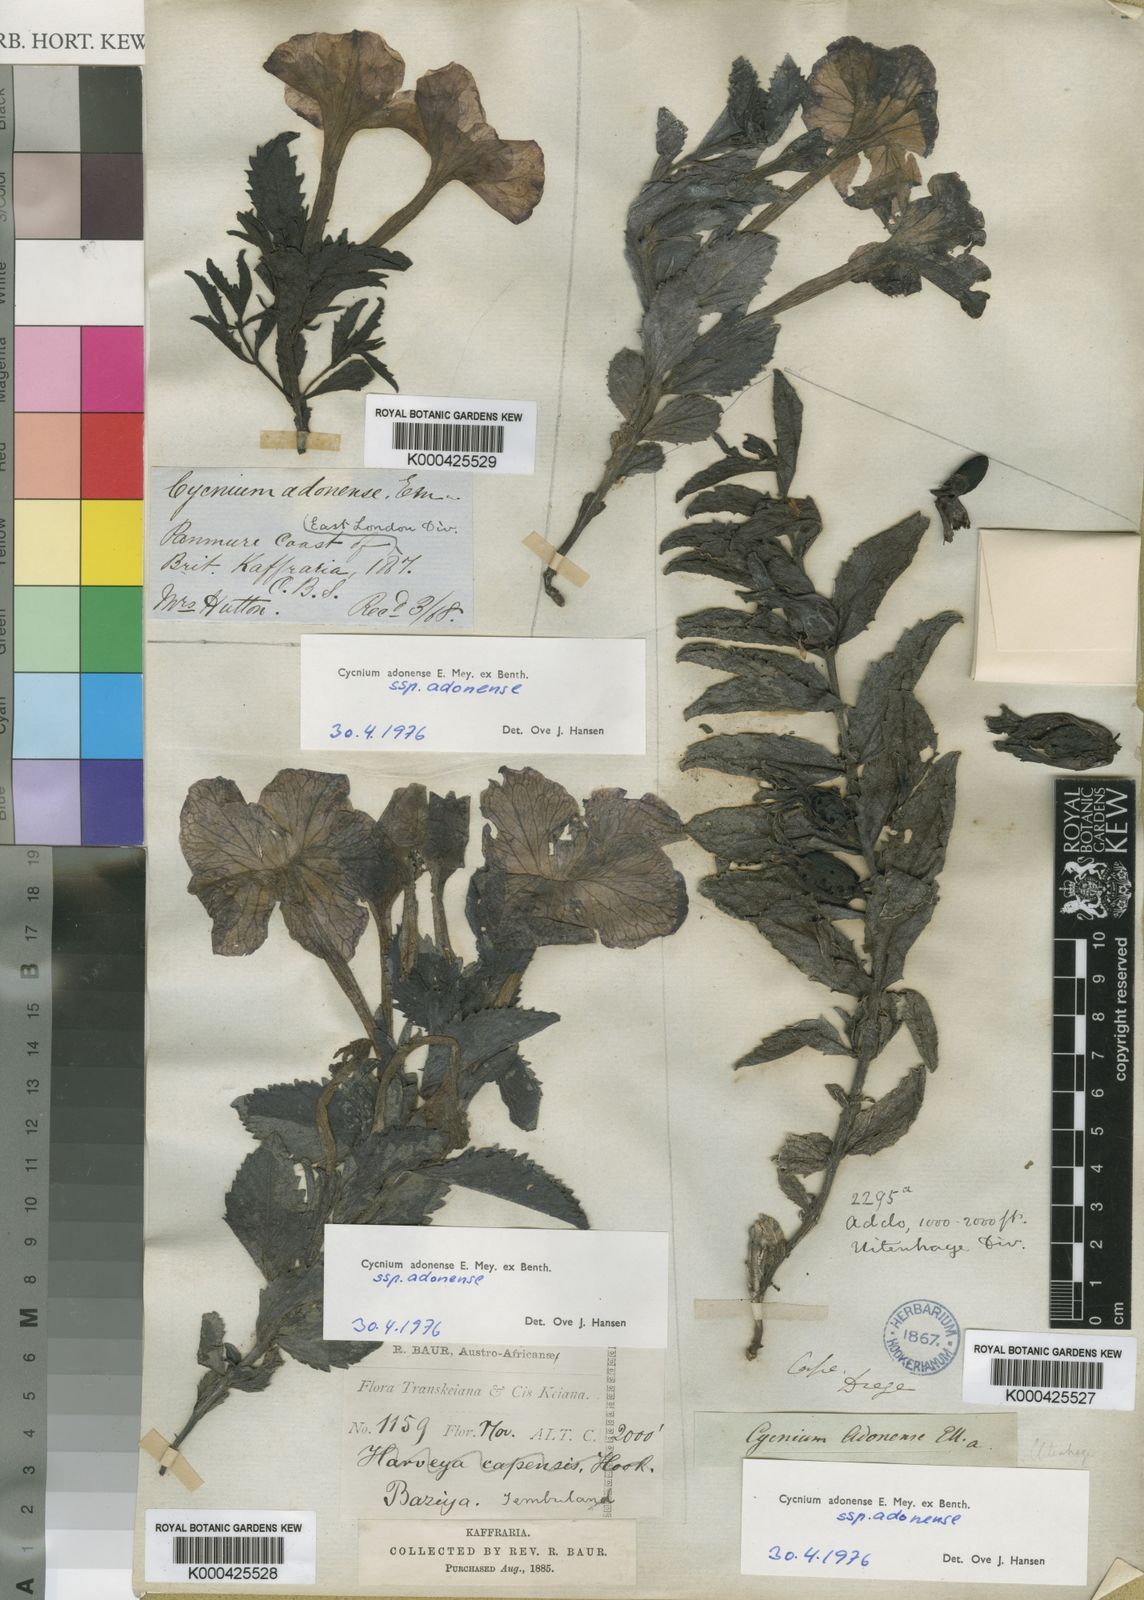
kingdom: Plantae
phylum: Tracheophyta
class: Magnoliopsida
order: Lamiales
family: Orobanchaceae
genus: Cycnium
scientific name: Cycnium adonense
